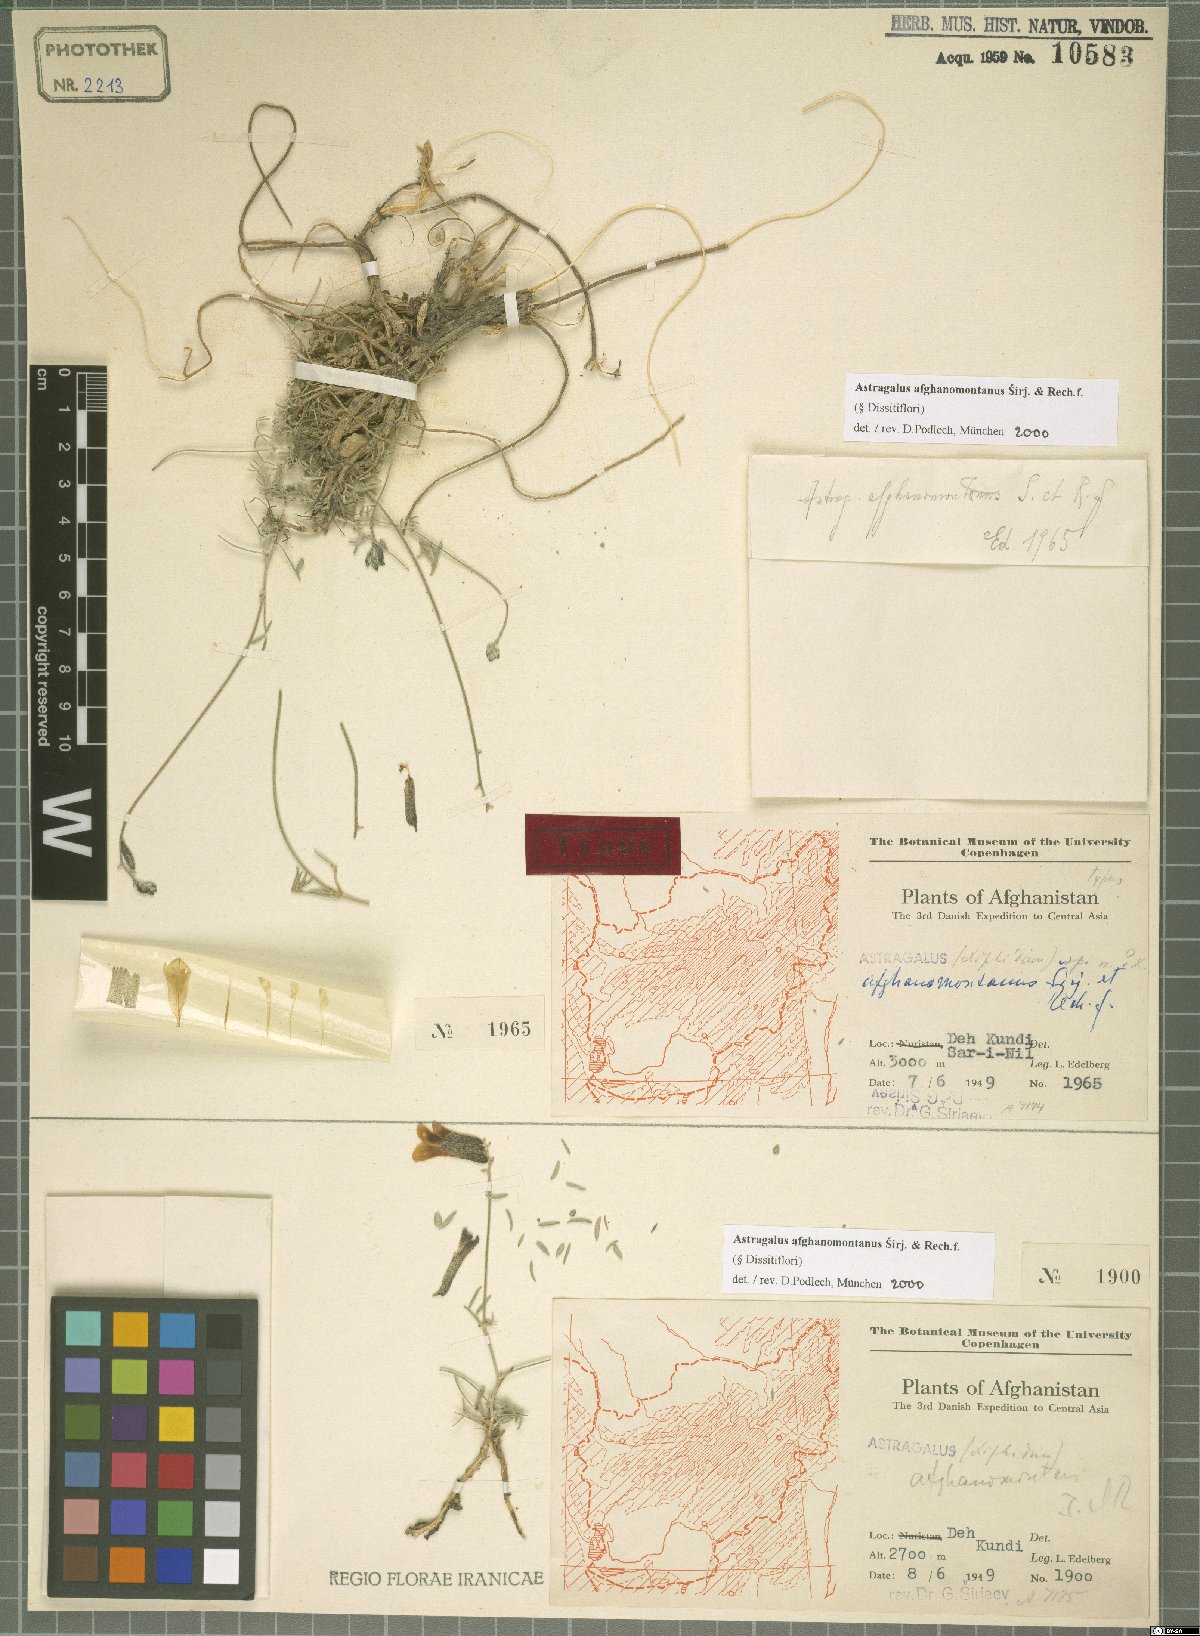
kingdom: Plantae
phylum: Tracheophyta
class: Magnoliopsida
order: Fabales
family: Fabaceae
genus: Astragalus
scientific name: Astragalus afghanomontanus
